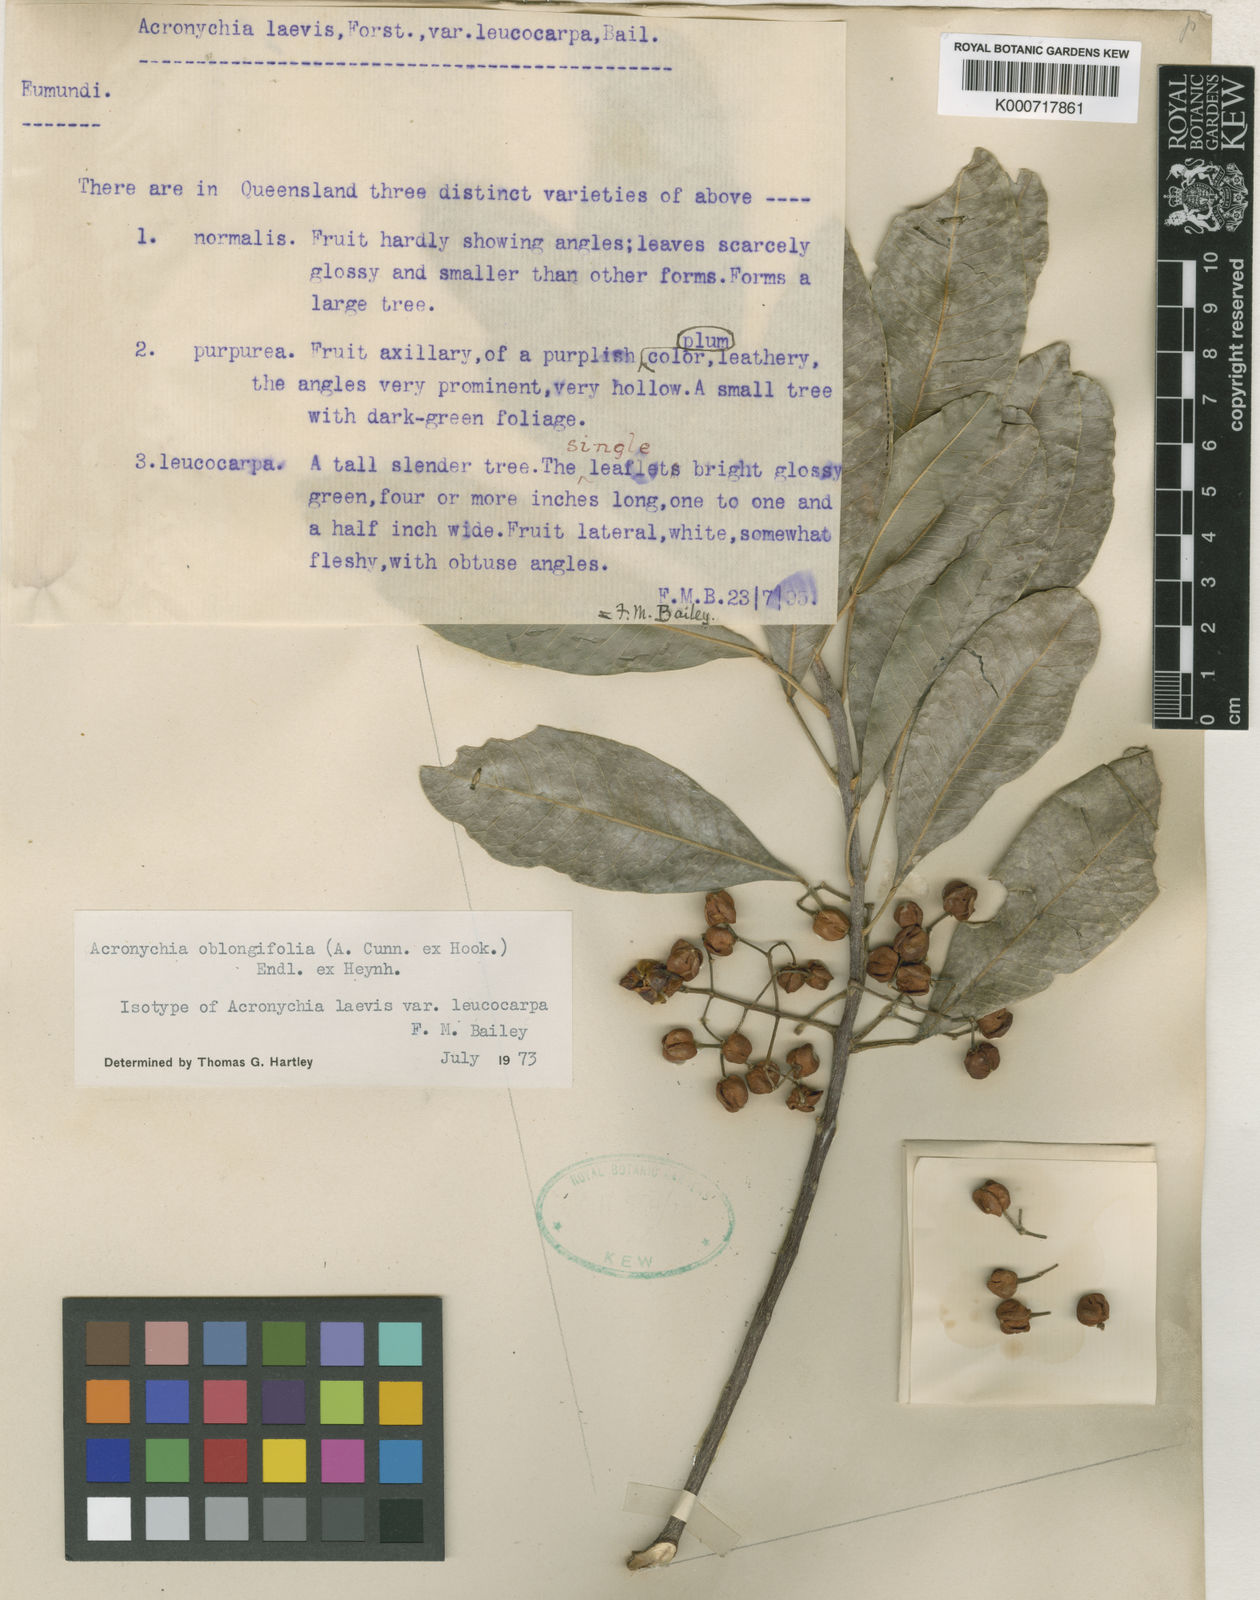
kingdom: Plantae
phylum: Tracheophyta
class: Magnoliopsida
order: Sapindales
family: Rutaceae
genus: Acronychia
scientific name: Acronychia oblongifolia
